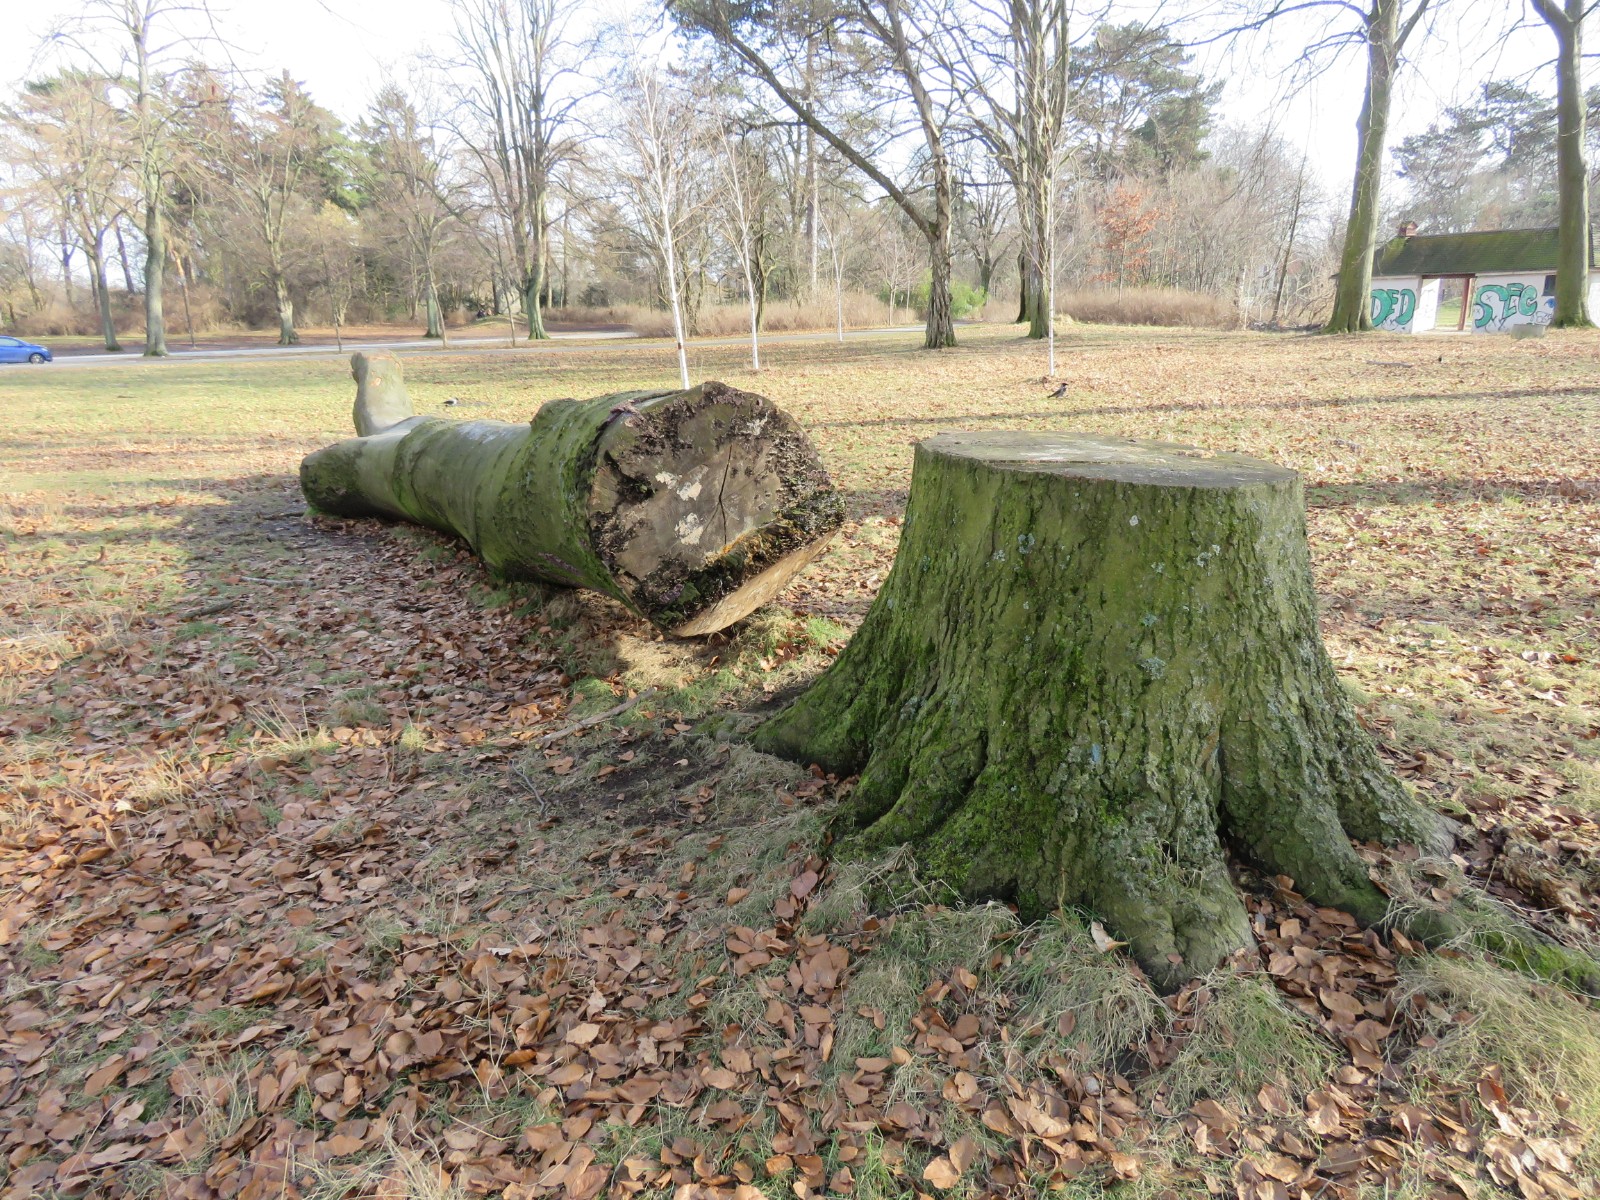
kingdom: Fungi
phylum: Basidiomycota
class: Agaricomycetes
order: Agaricales
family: Cyphellaceae
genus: Chondrostereum
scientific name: Chondrostereum purpureum
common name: purpurlædersvamp
